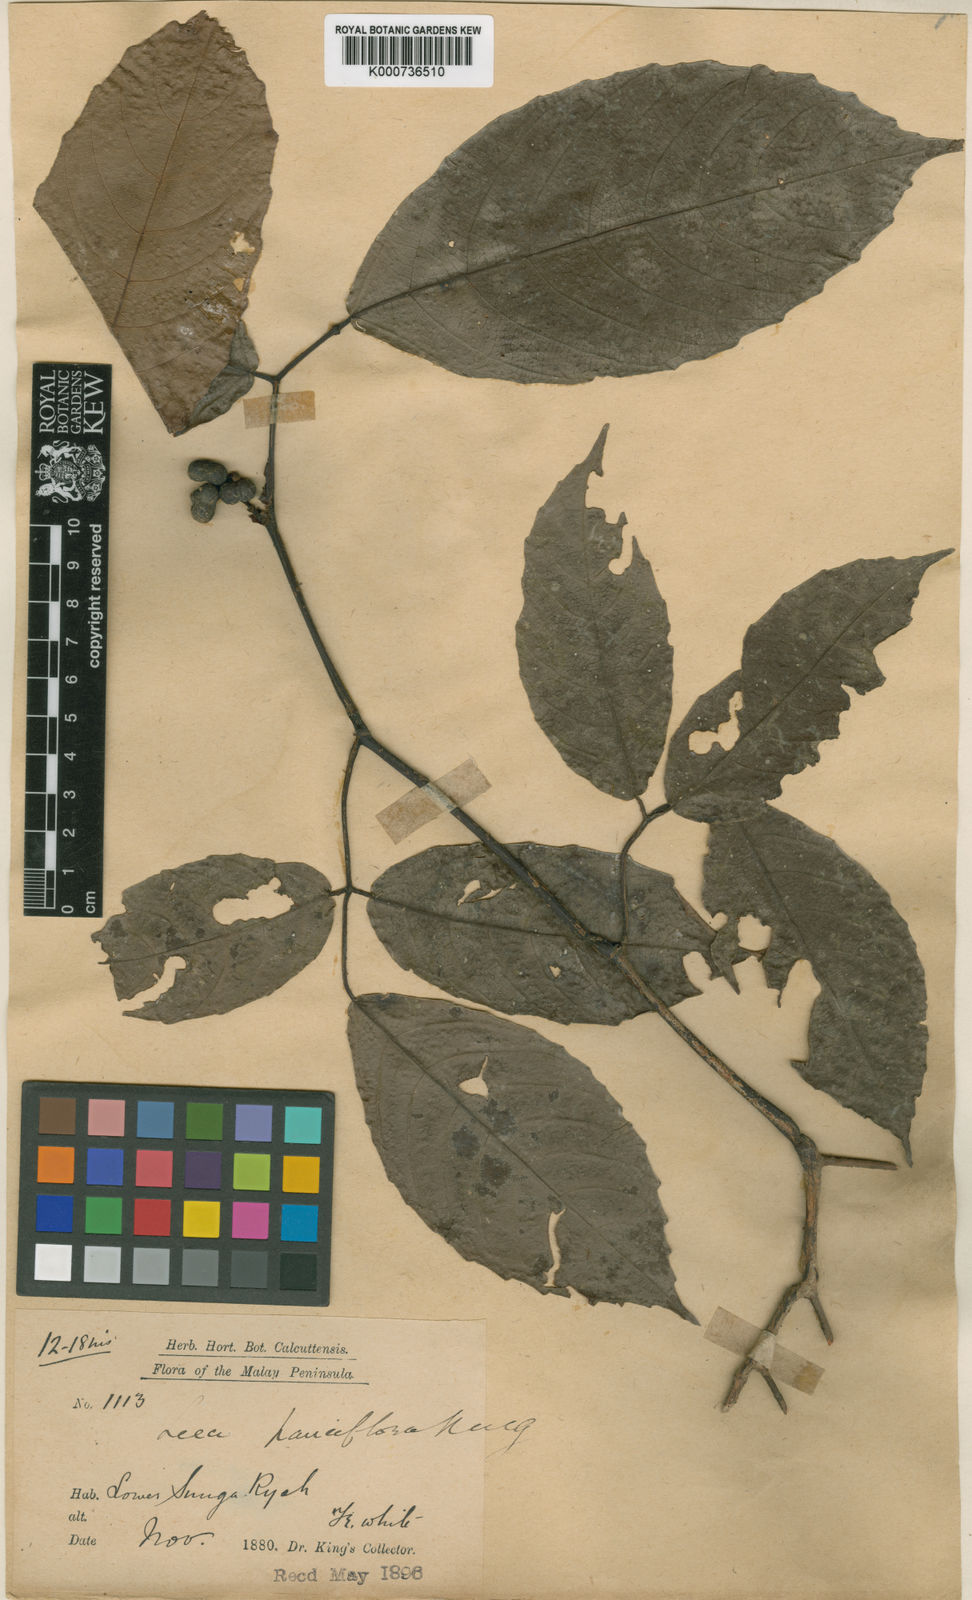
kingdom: Plantae
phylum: Tracheophyta
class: Magnoliopsida
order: Vitales
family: Vitaceae
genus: Leea
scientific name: Leea macrophylla
